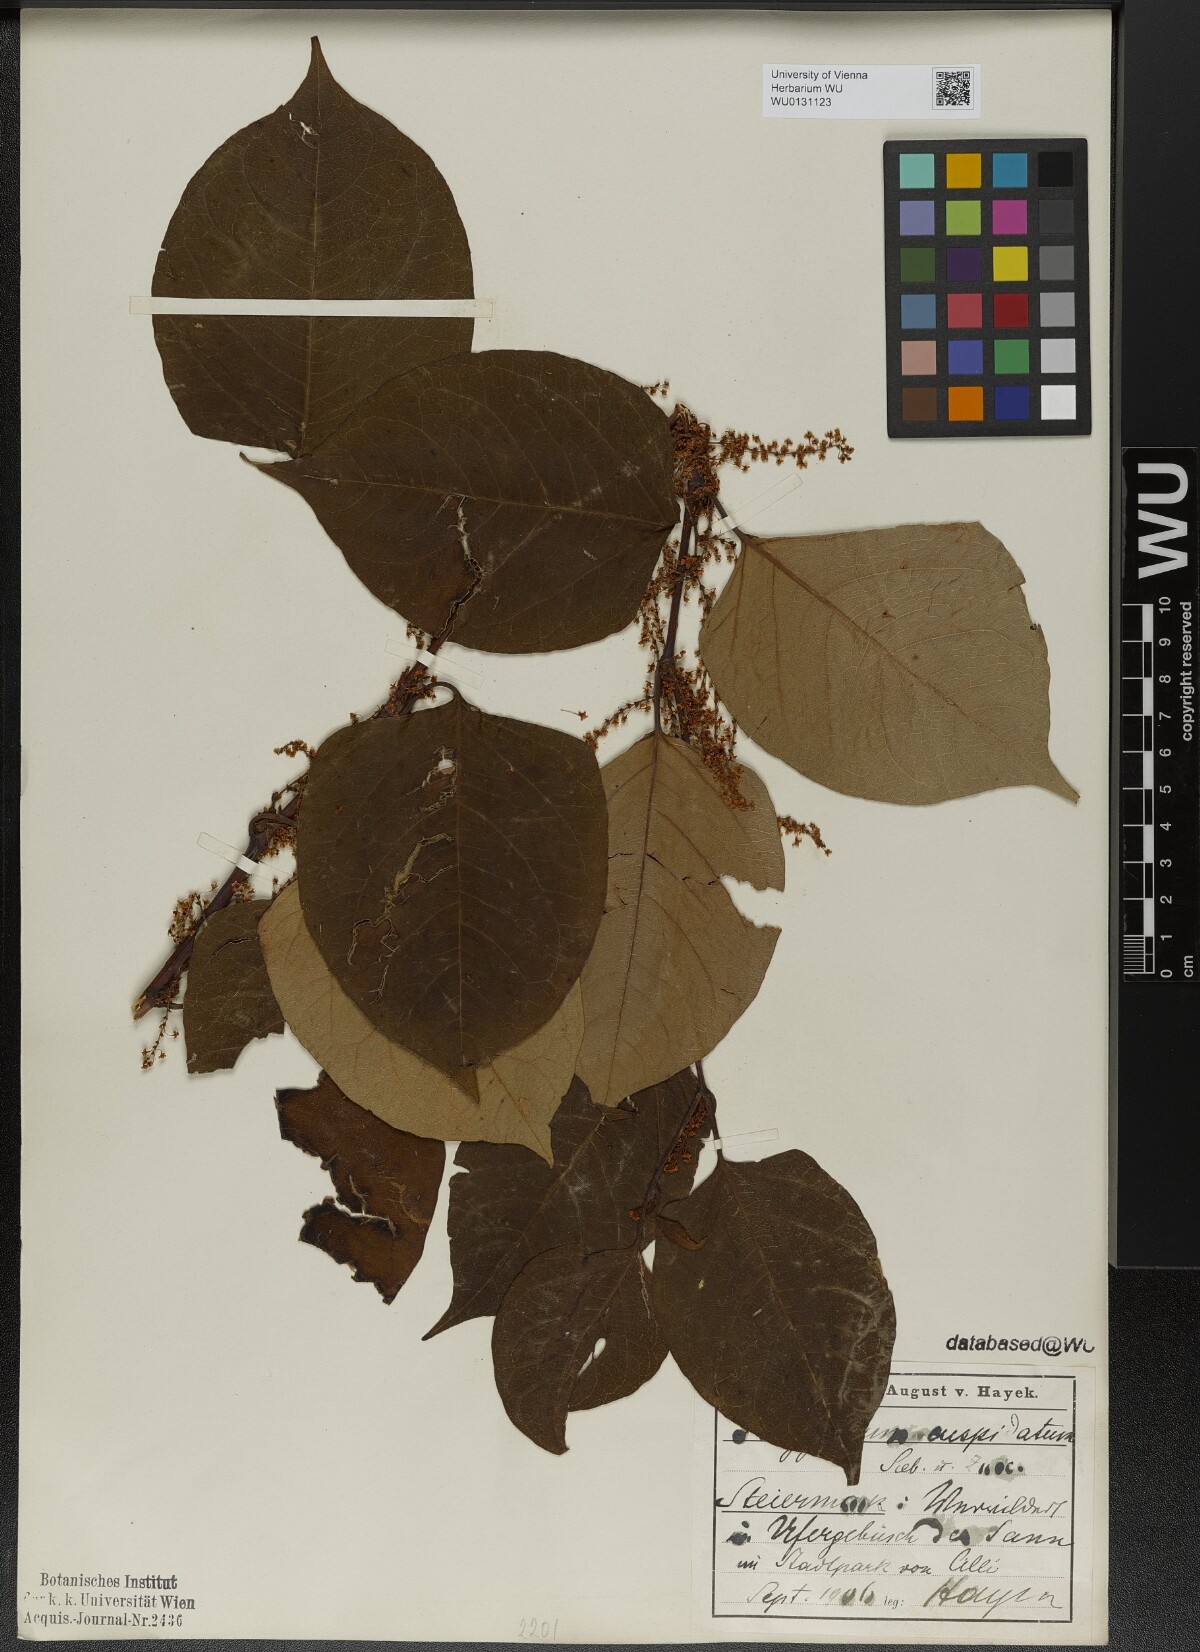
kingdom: Plantae
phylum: Tracheophyta
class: Magnoliopsida
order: Caryophyllales
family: Polygonaceae
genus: Reynoutria
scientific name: Reynoutria japonica
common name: Japanese knotweed
